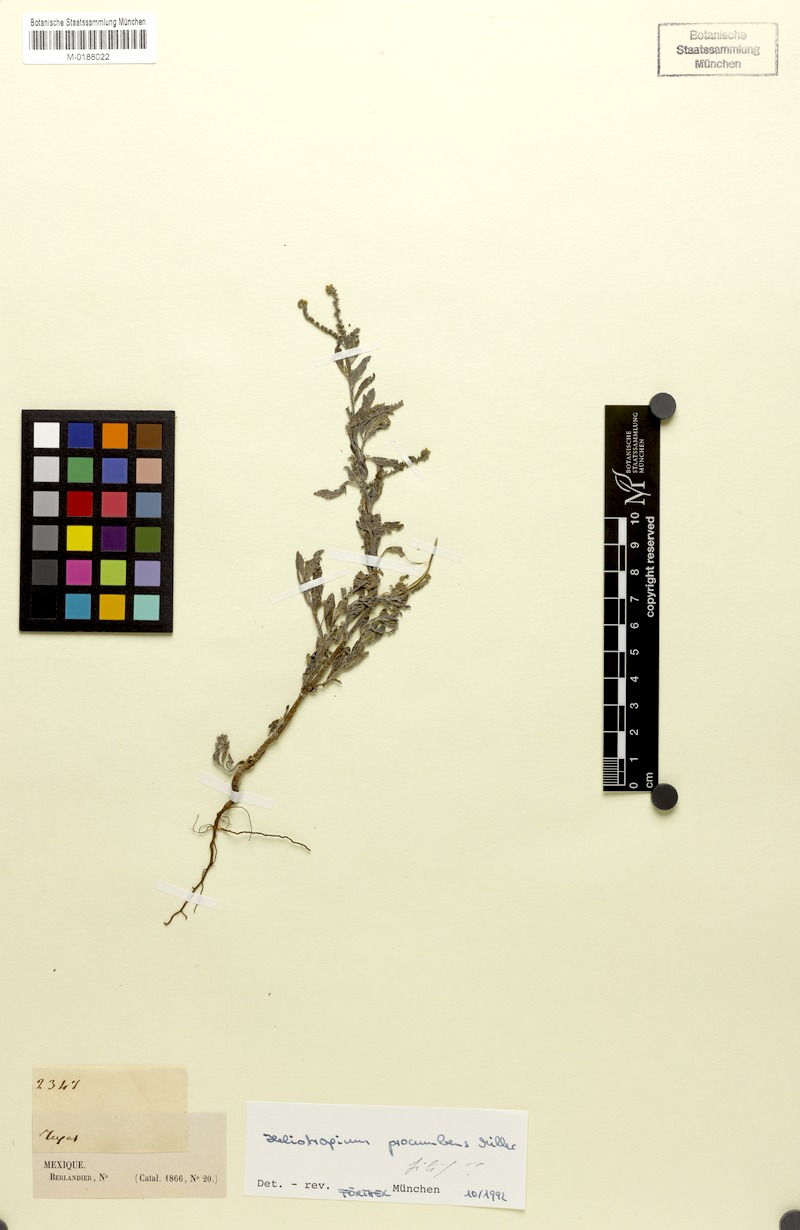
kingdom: Plantae
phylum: Tracheophyta
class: Magnoliopsida
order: Boraginales
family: Heliotropiaceae
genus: Euploca
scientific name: Euploca procumbens
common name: Fourspike heliotrope
